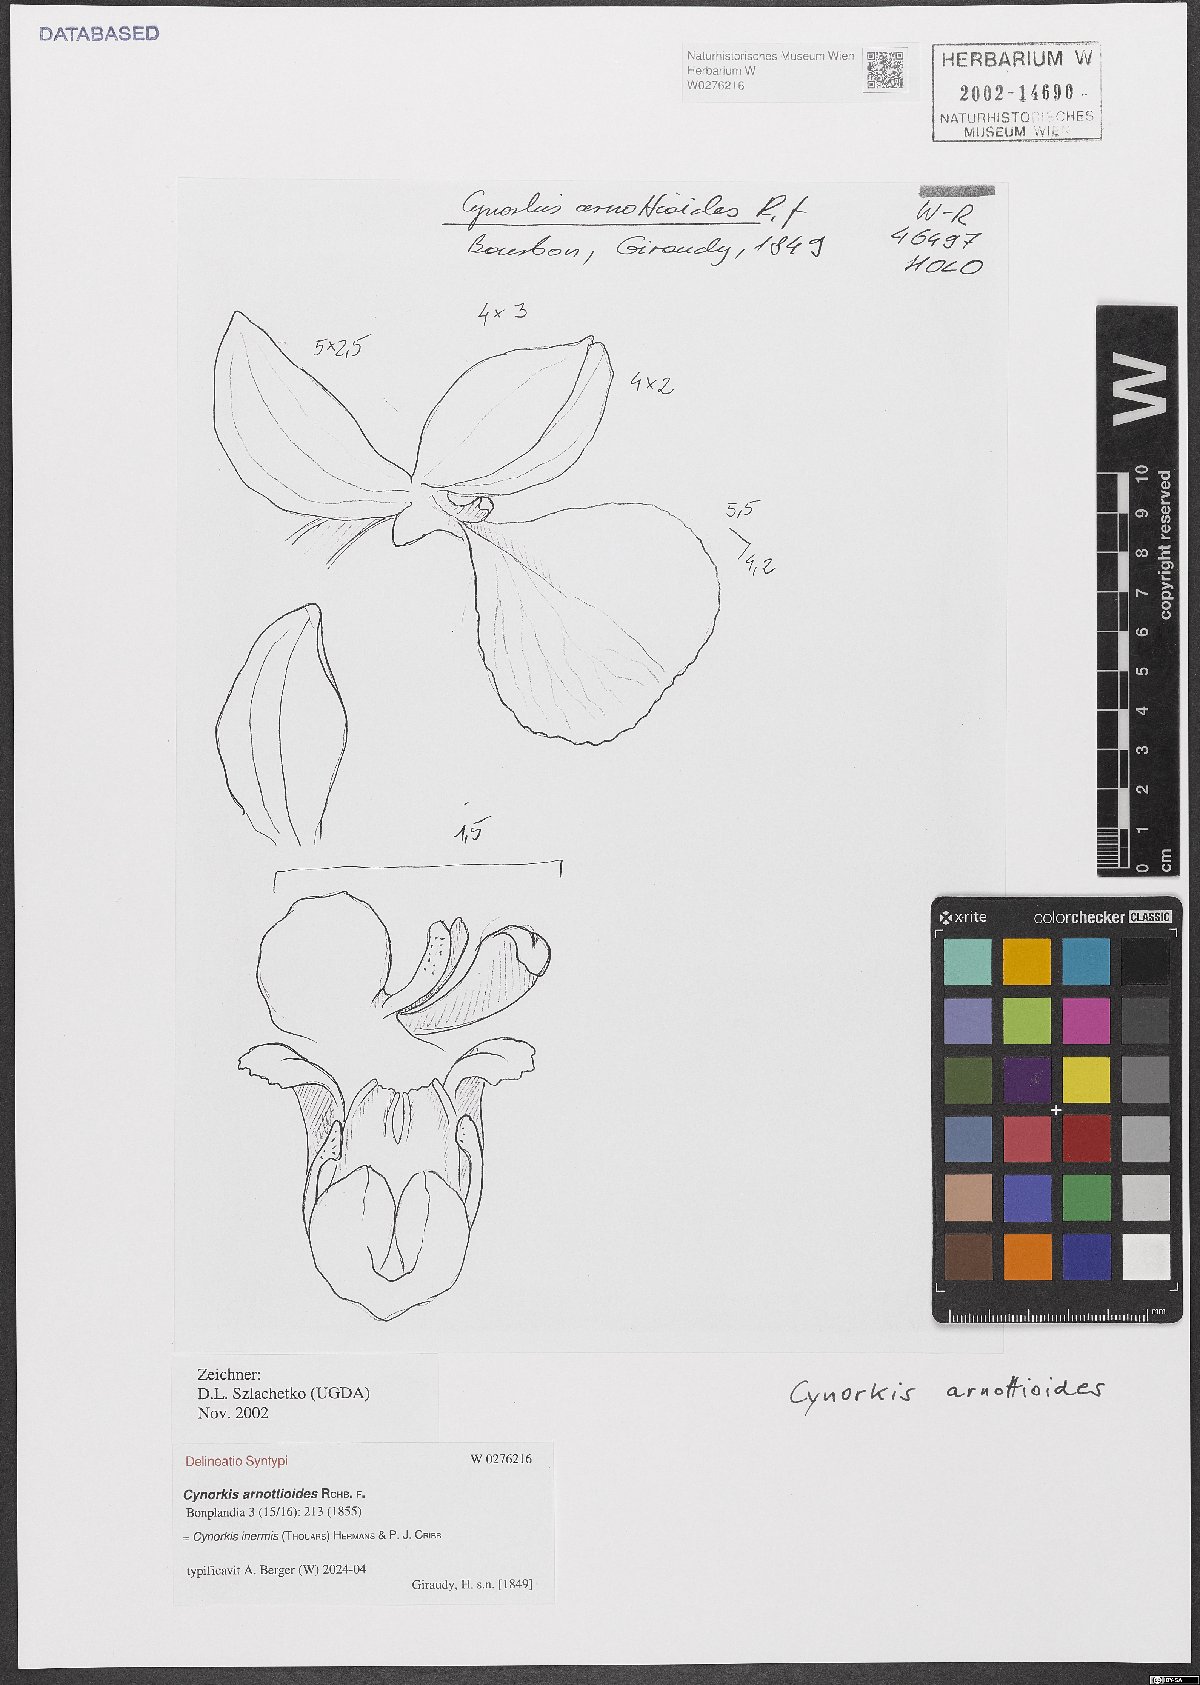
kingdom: Plantae
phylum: Tracheophyta
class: Liliopsida
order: Asparagales
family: Orchidaceae
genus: Cynorkis
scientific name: Cynorkis inermis
